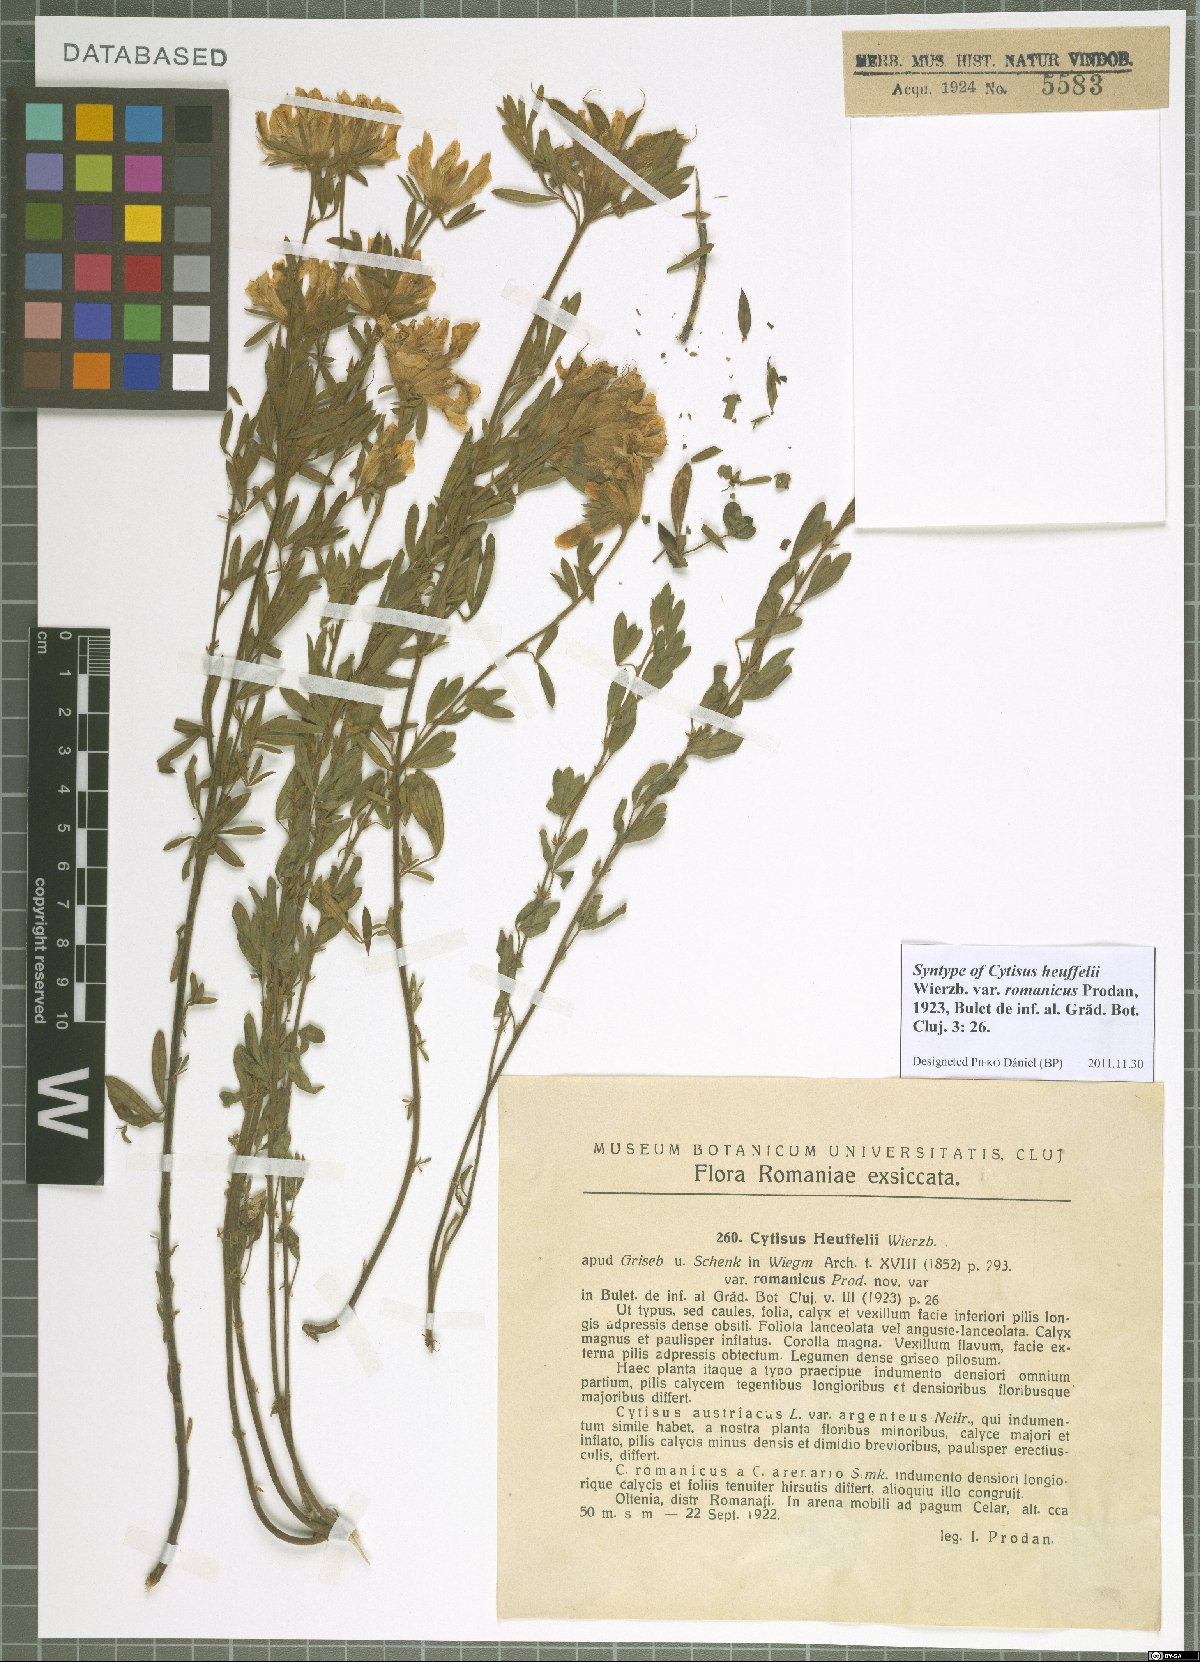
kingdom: Plantae
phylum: Tracheophyta
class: Magnoliopsida
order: Fabales
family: Fabaceae
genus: Chamaecytisus
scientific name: Chamaecytisus heuffelii
